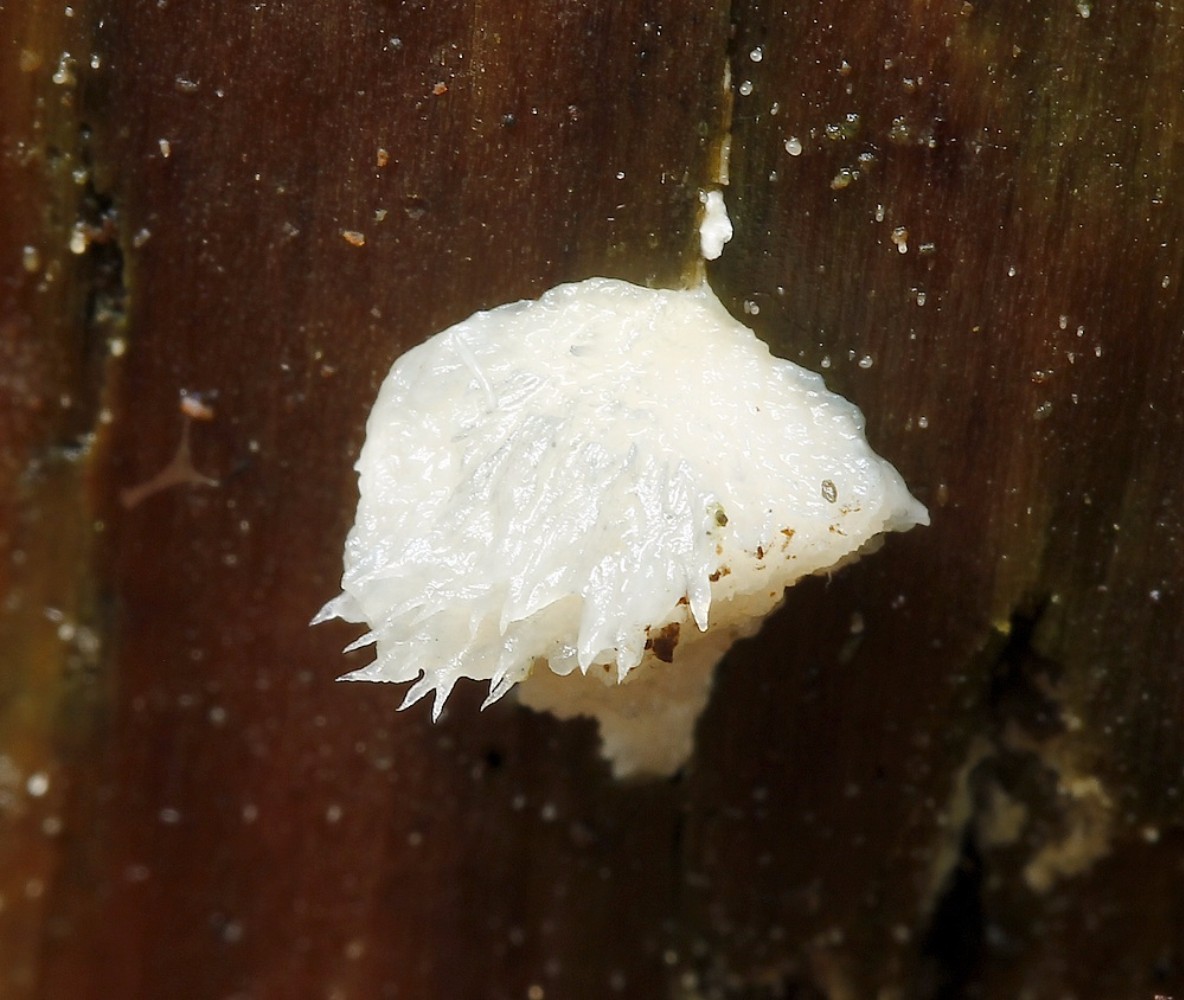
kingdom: Fungi
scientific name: Fungi
